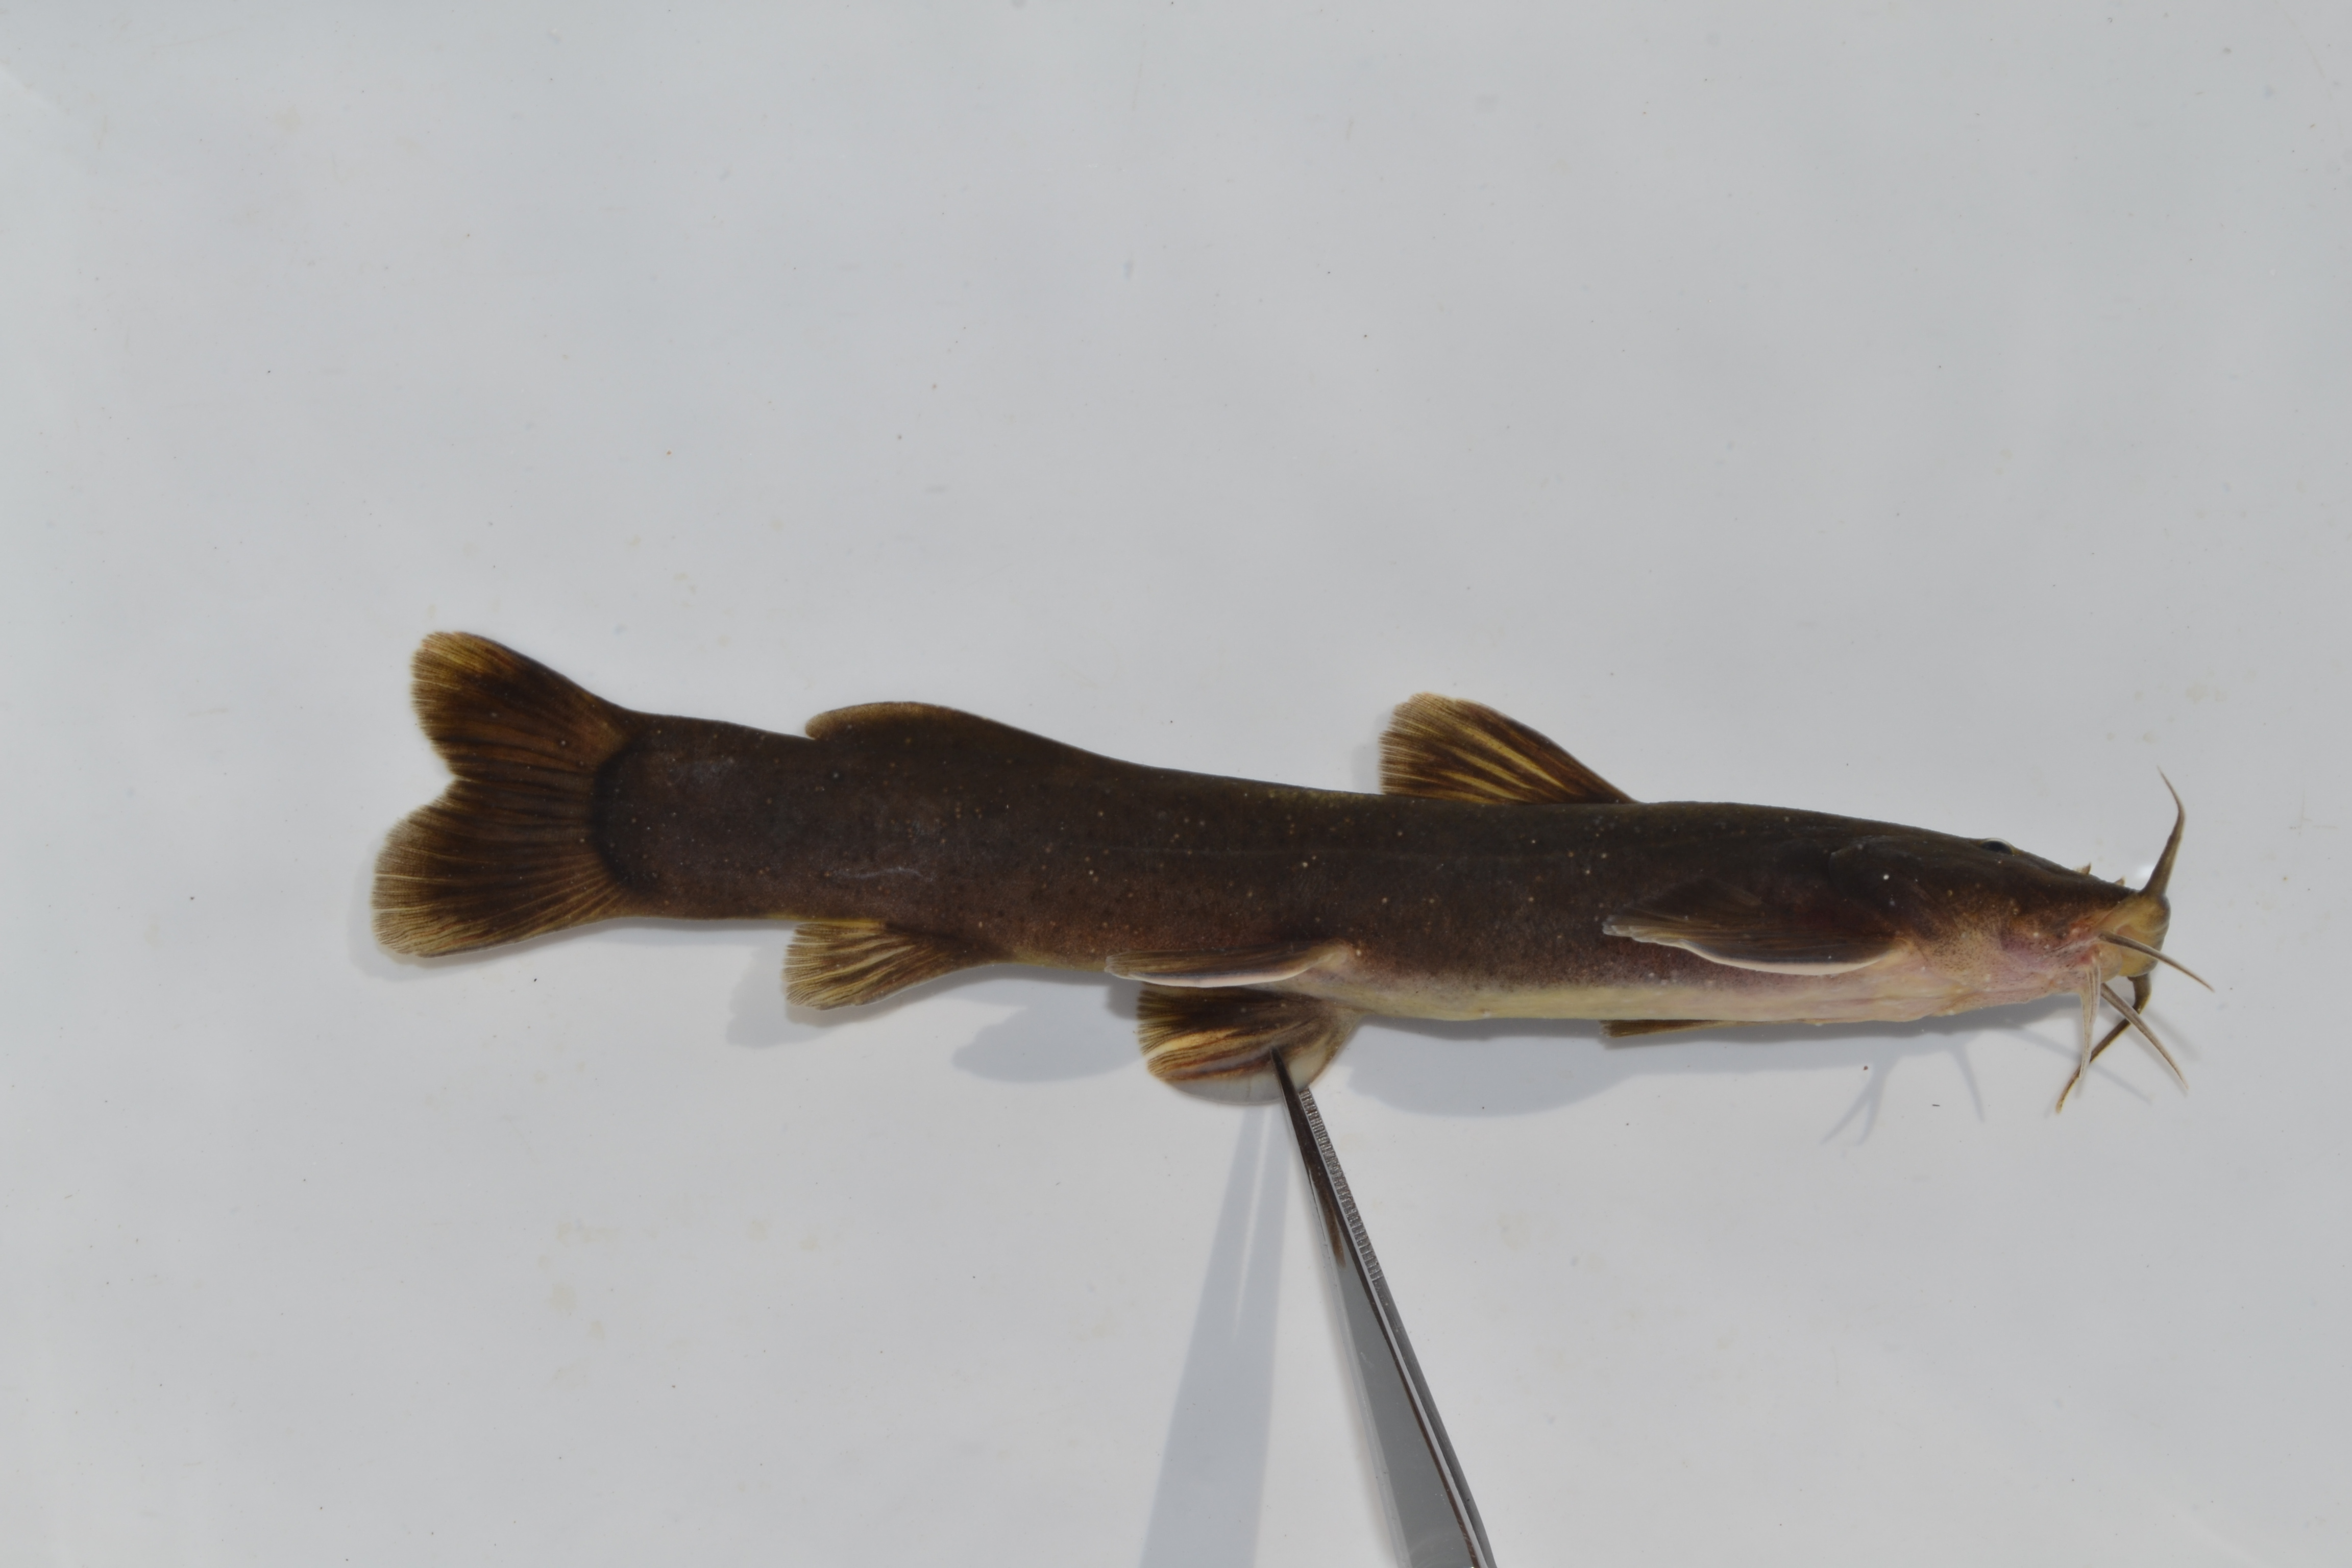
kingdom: Animalia
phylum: Chordata
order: Siluriformes
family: Amphiliidae
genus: Amphilius
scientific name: Amphilius uranoscopus
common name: Stargazer mountain catfish
